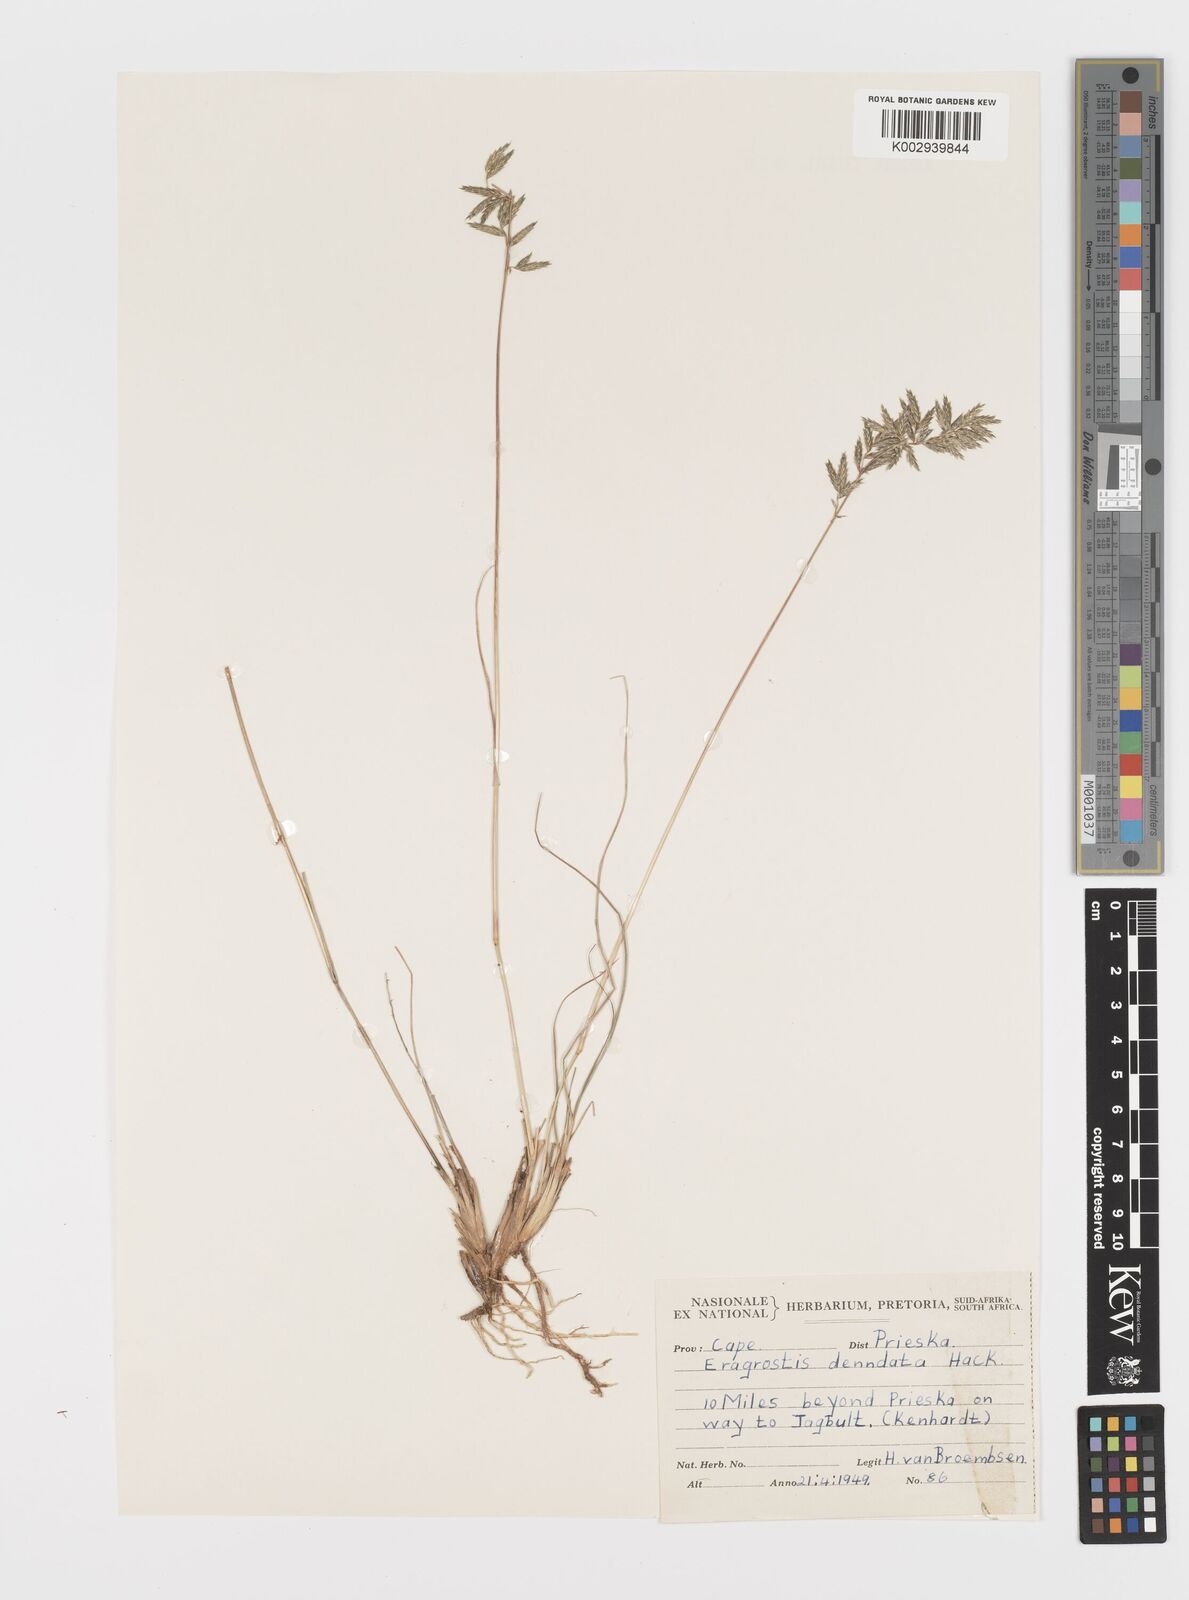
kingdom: Plantae
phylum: Tracheophyta
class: Liliopsida
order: Poales
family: Poaceae
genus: Eragrostis
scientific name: Eragrostis nindensis
